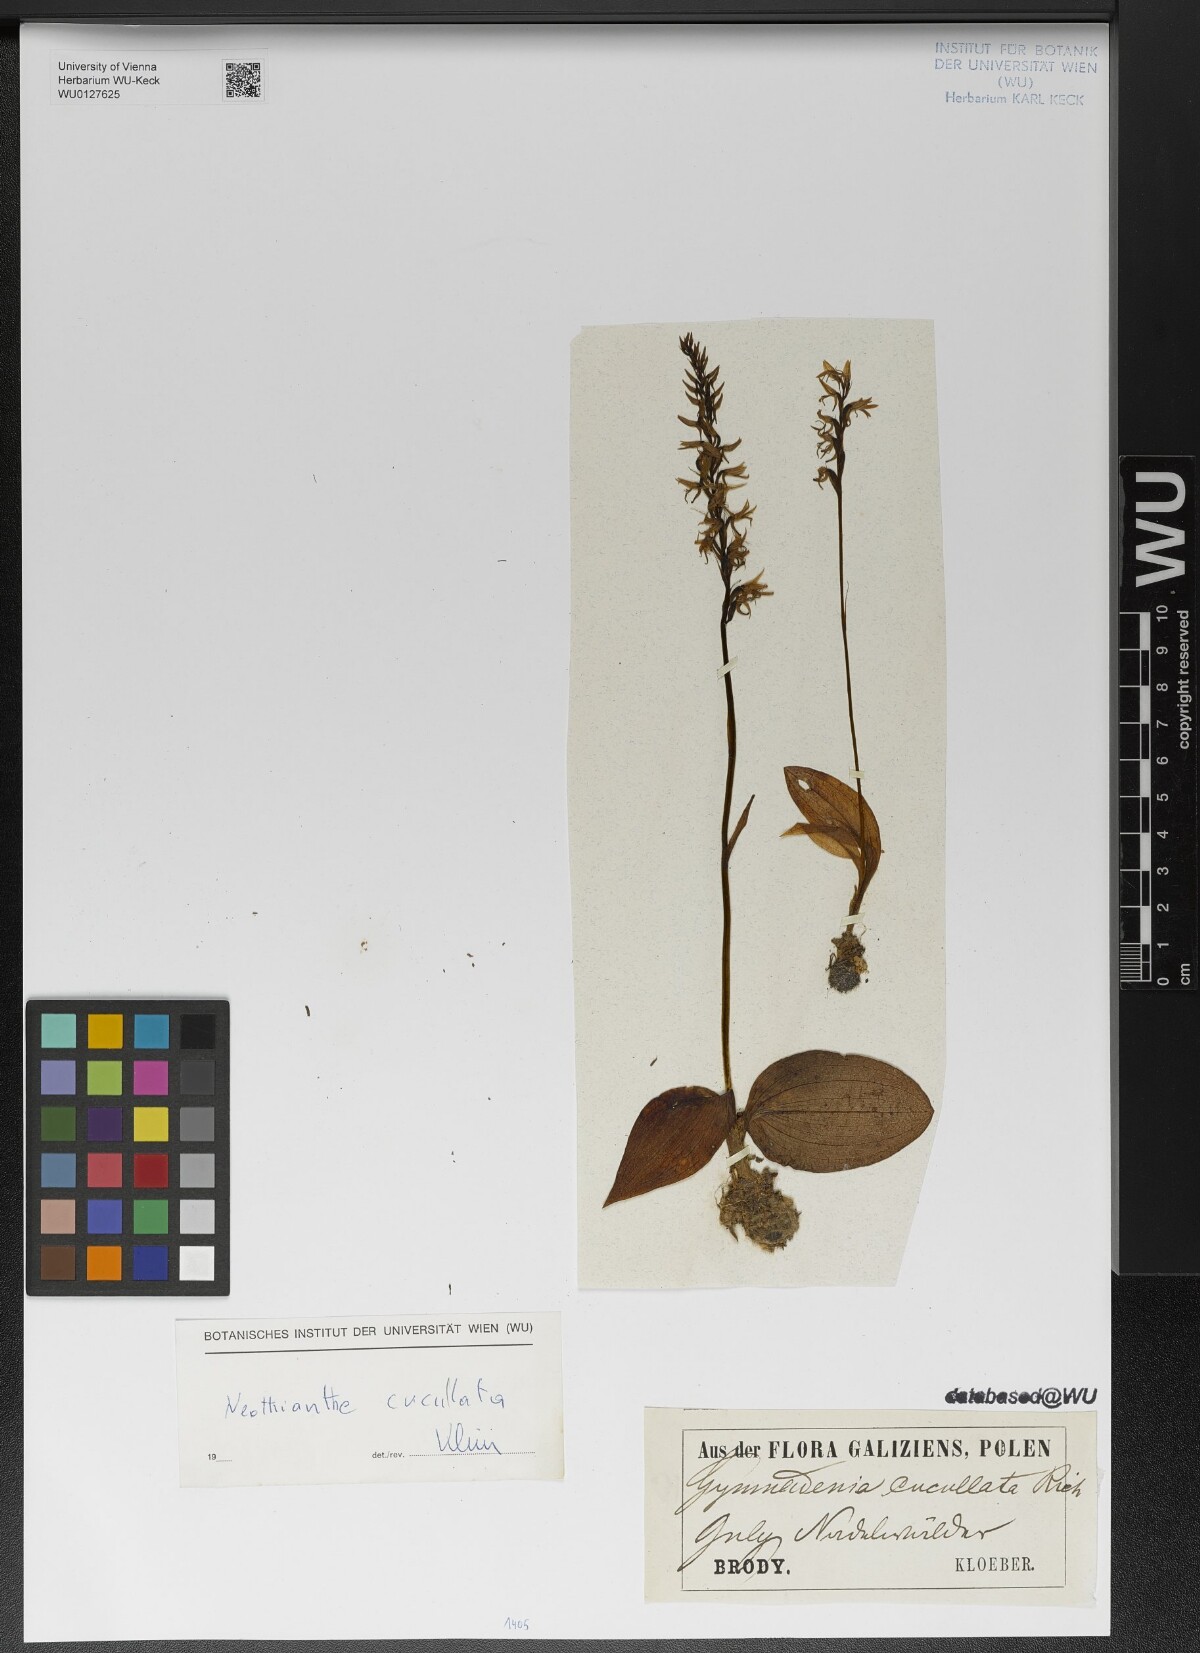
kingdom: Plantae
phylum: Tracheophyta
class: Liliopsida
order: Asparagales
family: Orchidaceae
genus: Hemipilia
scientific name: Hemipilia cucullata
